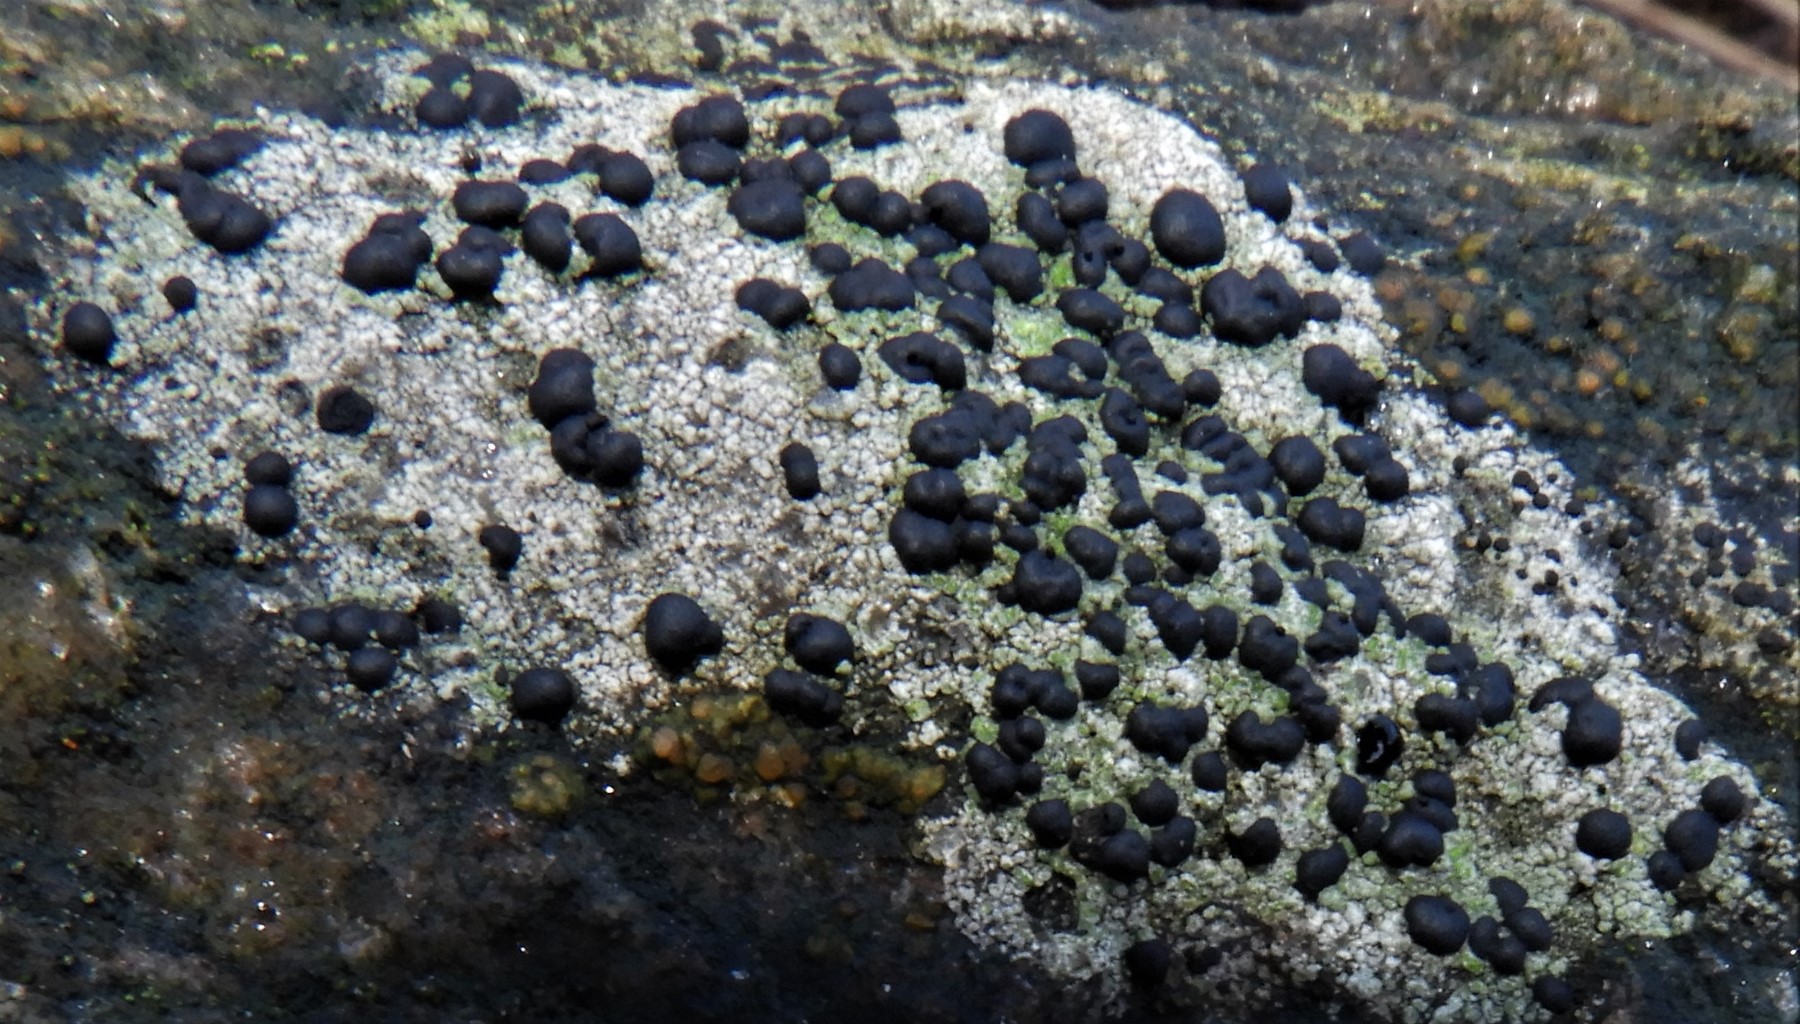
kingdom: Fungi
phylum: Ascomycota
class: Lecanoromycetes
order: Lecanorales
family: Lecanoraceae
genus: Lecidella
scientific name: Lecidella scabra
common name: skurvet skivelav
